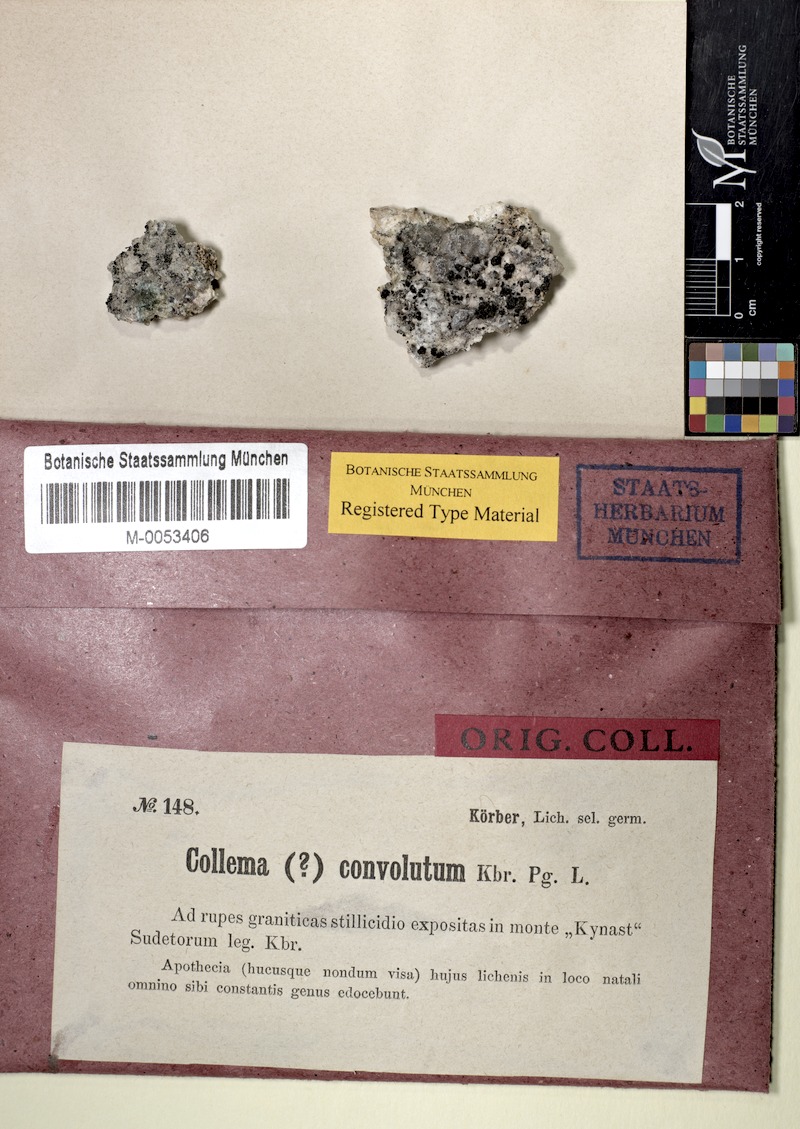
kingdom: Fungi
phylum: Ascomycota
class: Lichinomycetes
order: Lichinales
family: Lichinaceae
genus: Lempholemma
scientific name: Lempholemma botryosum
